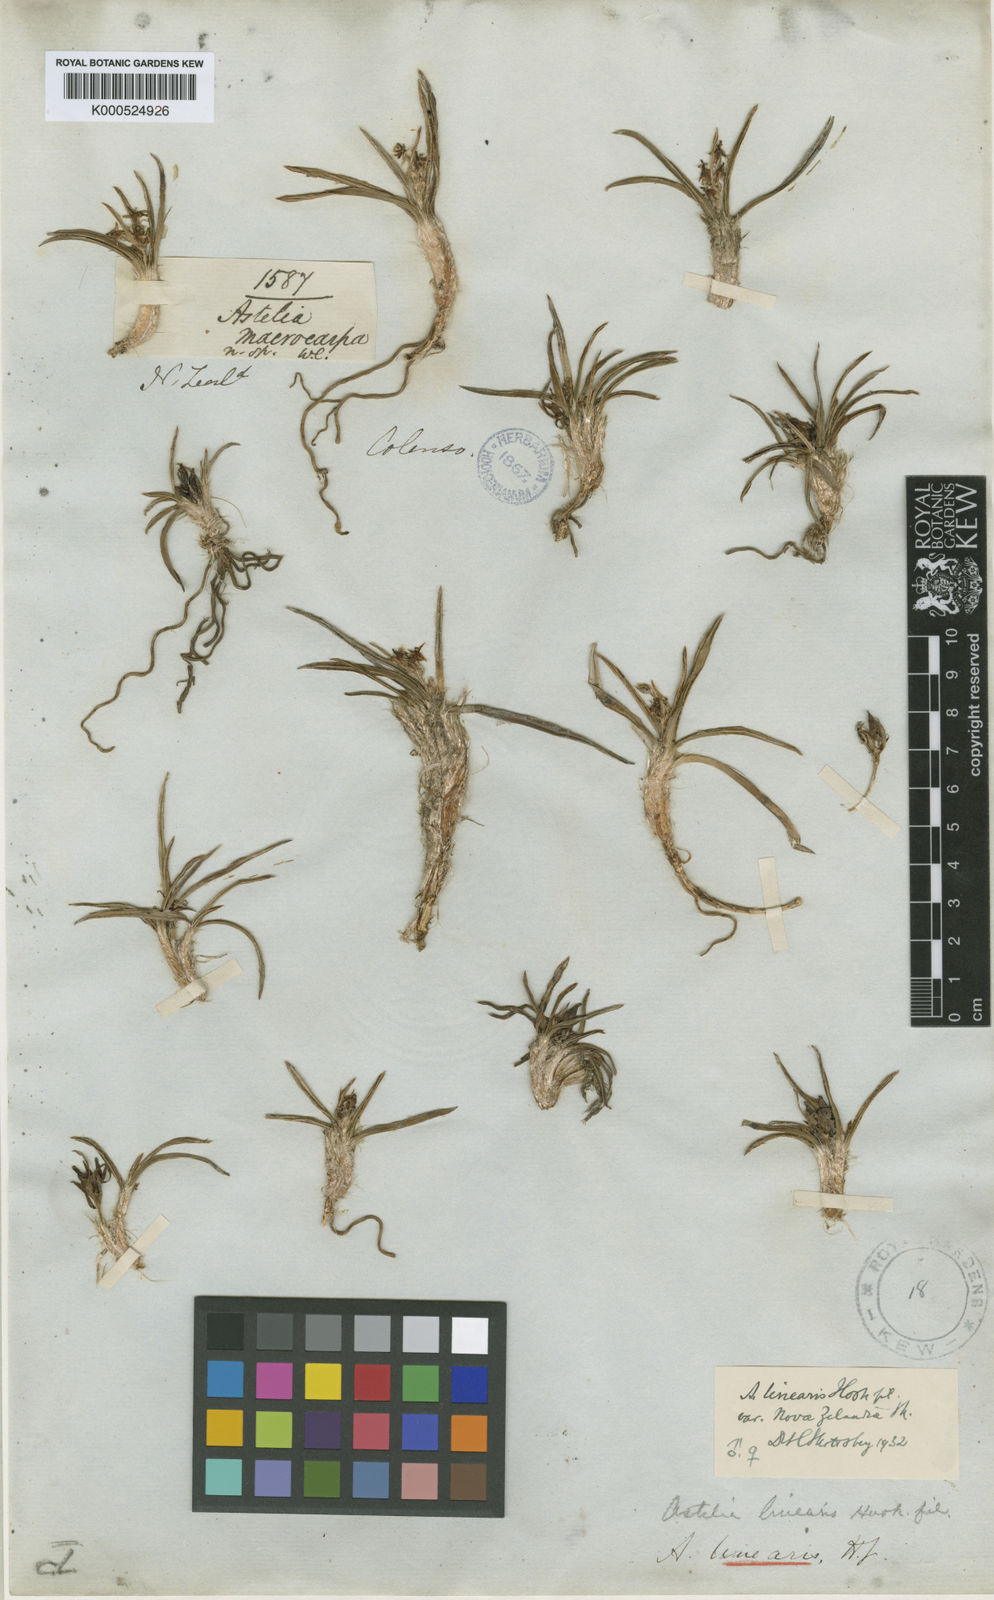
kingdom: Plantae
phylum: Tracheophyta
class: Liliopsida
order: Asparagales
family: Asteliaceae
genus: Astelia
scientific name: Astelia linearis
